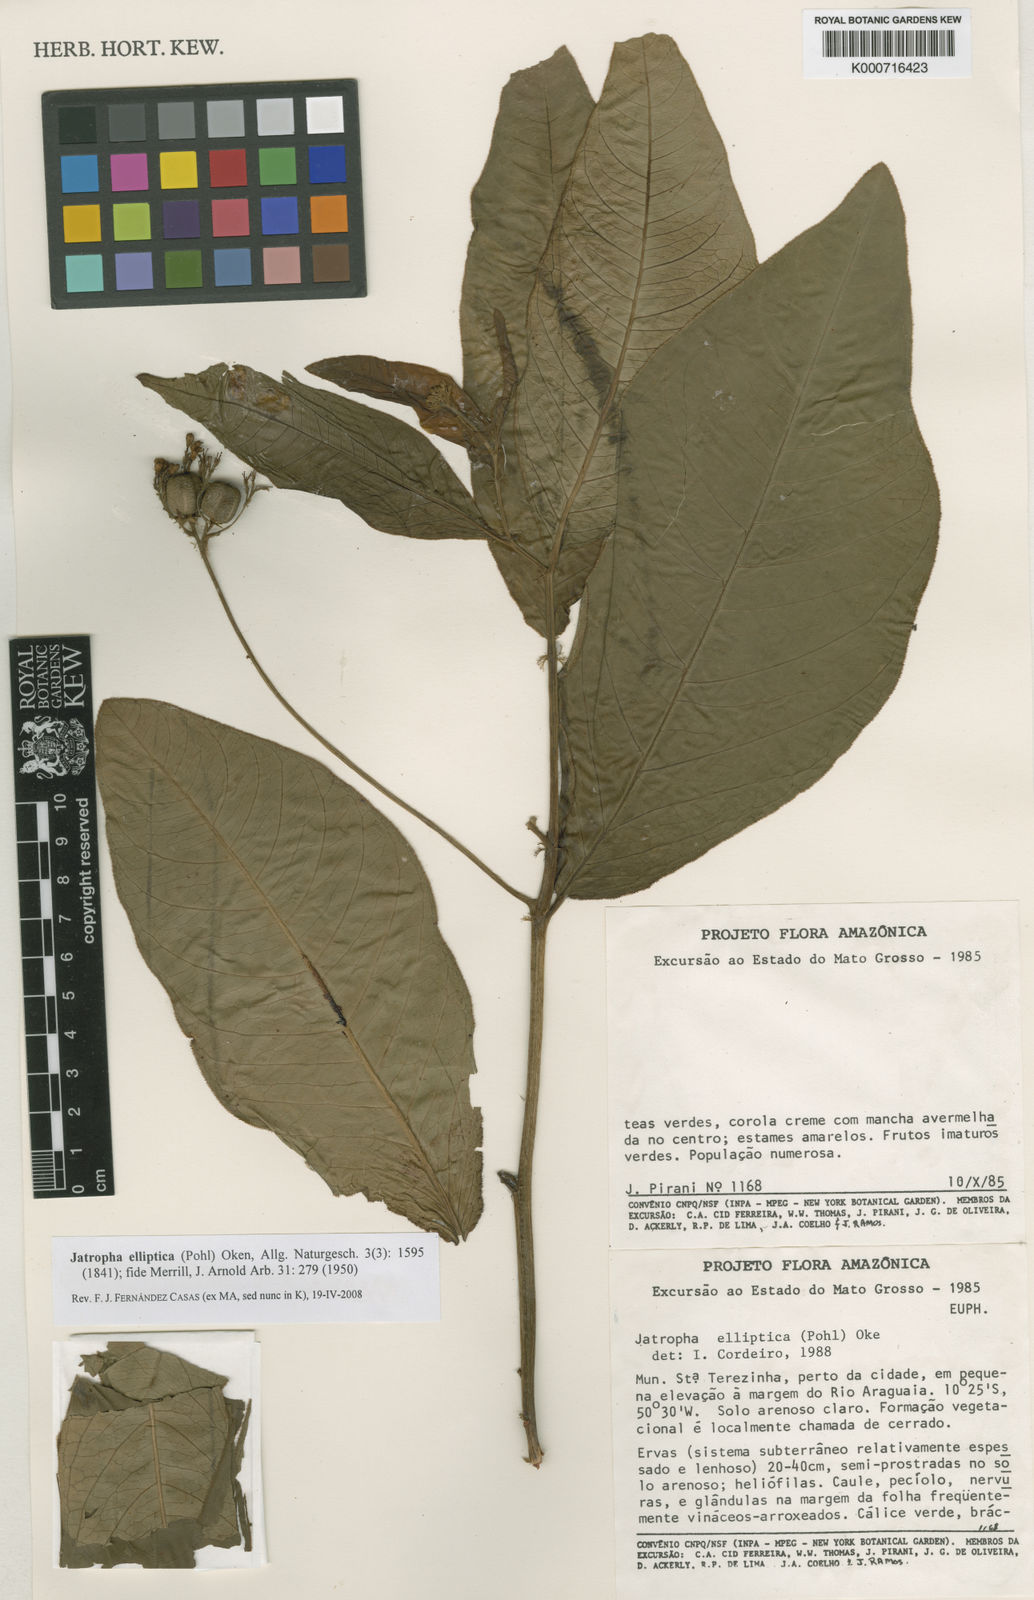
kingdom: Plantae
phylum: Tracheophyta
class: Magnoliopsida
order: Malpighiales
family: Euphorbiaceae
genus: Jatropha
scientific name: Jatropha elliptica
